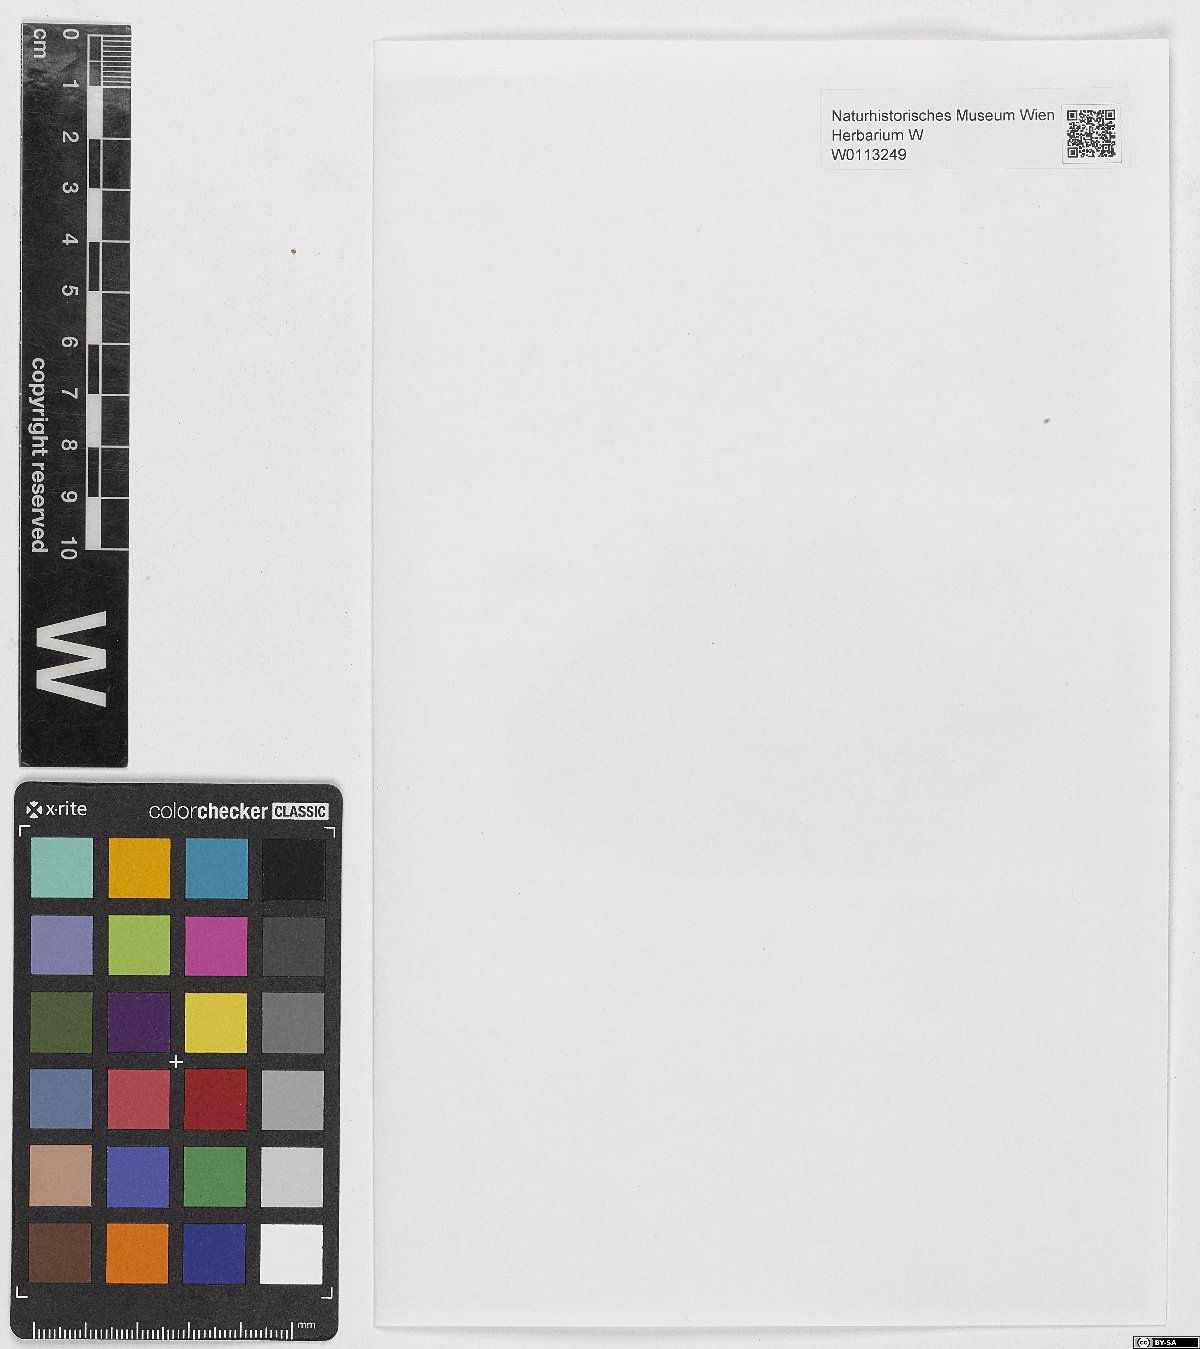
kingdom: Plantae
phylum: Bryophyta
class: Bryopsida
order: Pottiales
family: Pottiaceae
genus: Weissia
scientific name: Weissia squarrosa
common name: Spreading-leaved beardless-moss
